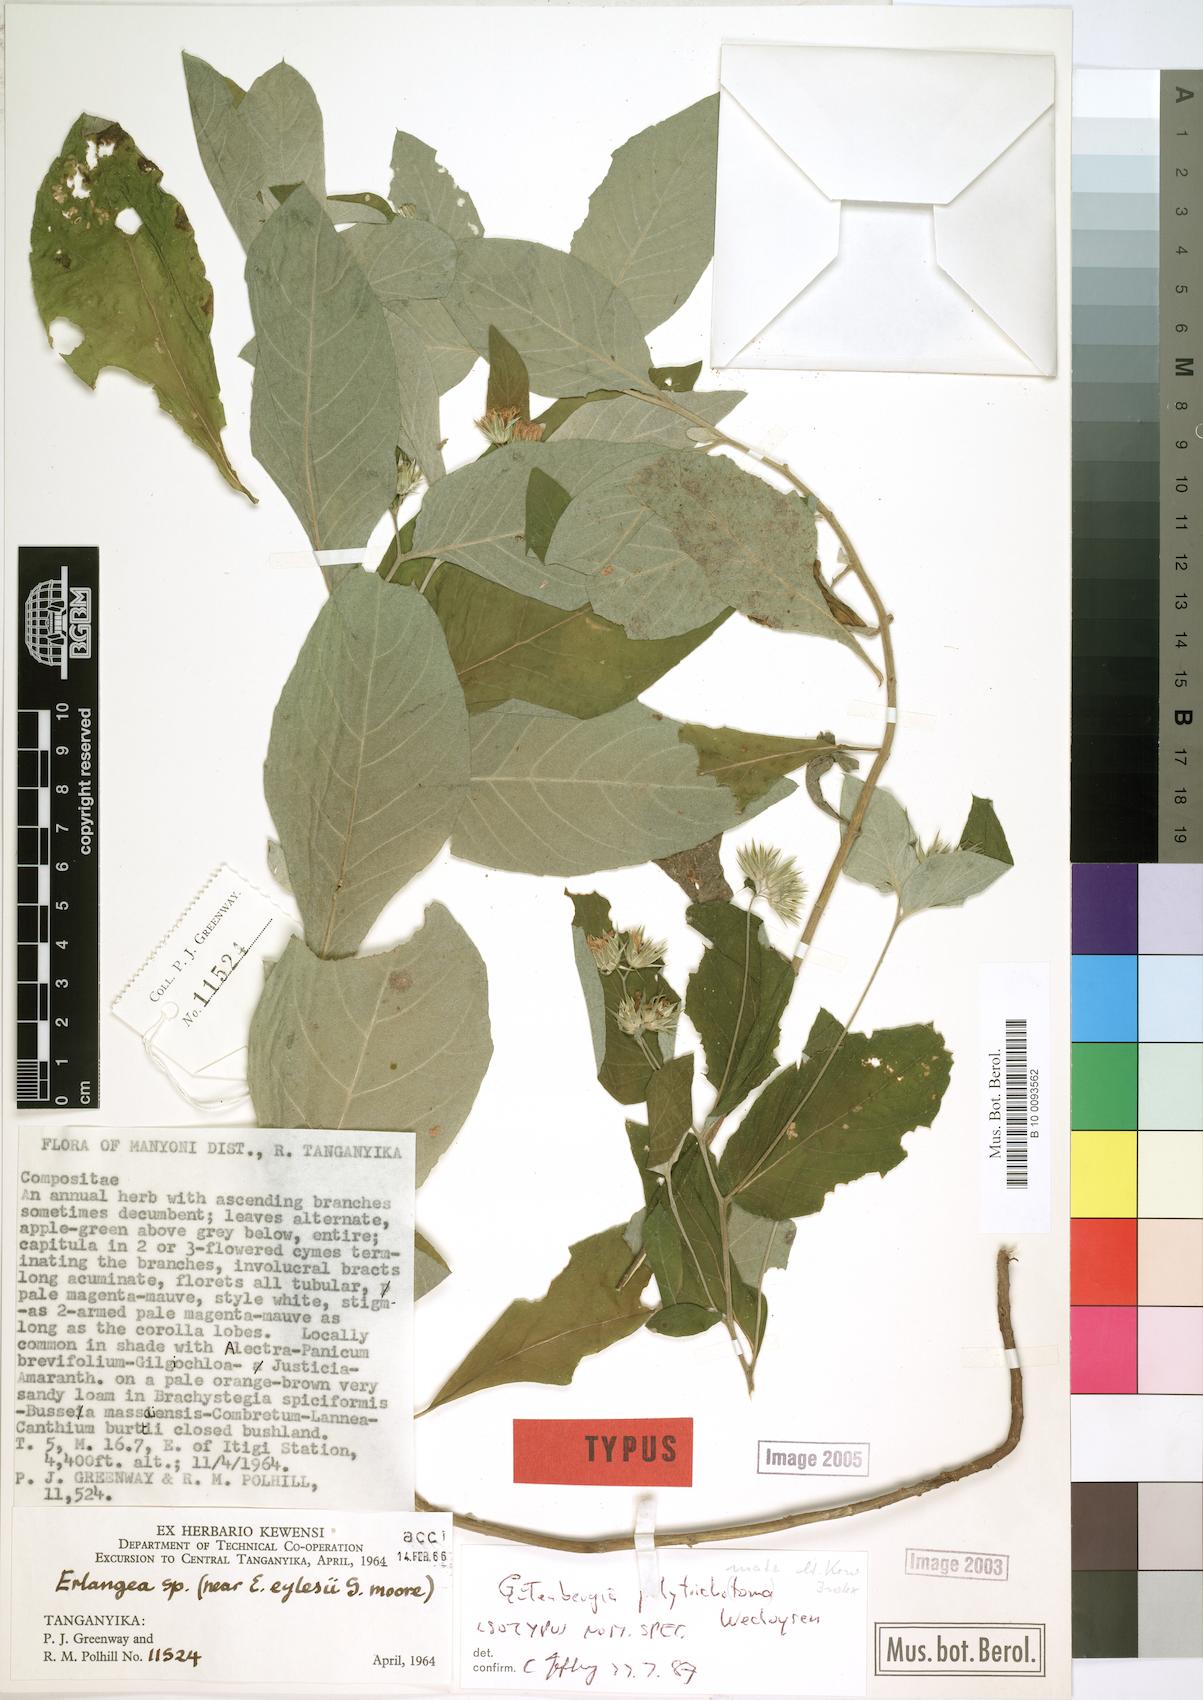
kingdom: Plantae
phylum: Tracheophyta
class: Magnoliopsida
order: Asterales
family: Asteraceae
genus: Cyanthillium
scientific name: Cyanthillium polytrichomata
